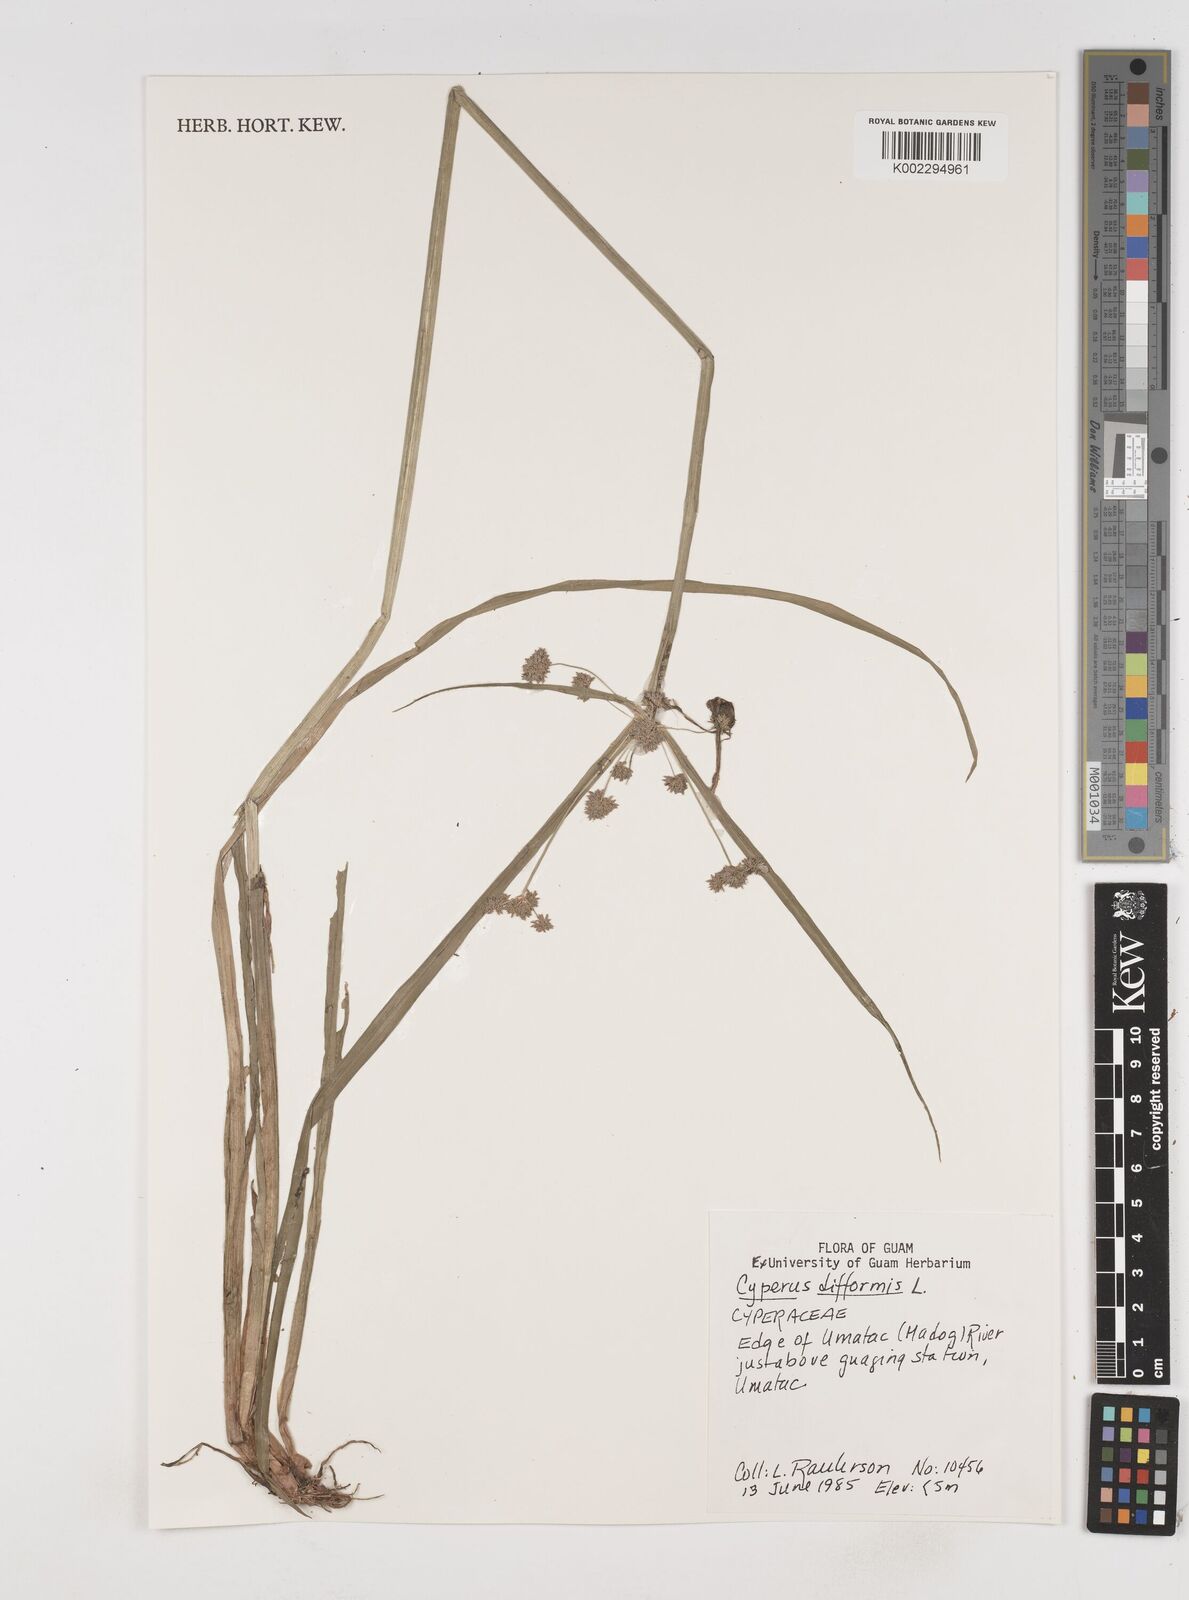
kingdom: Plantae
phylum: Tracheophyta
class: Liliopsida
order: Poales
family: Cyperaceae
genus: Cyperus
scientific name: Cyperus difformis
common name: Variable flatsedge
